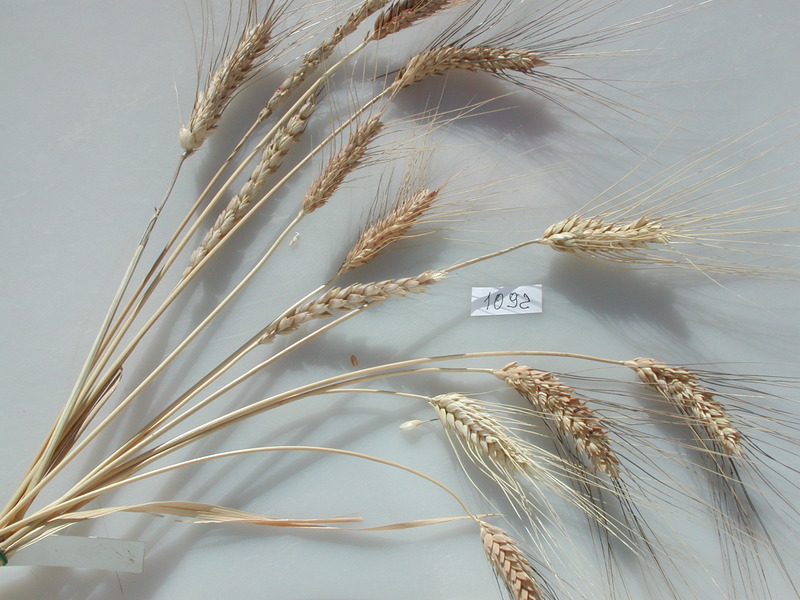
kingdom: Plantae
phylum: Tracheophyta
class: Liliopsida
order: Poales
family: Poaceae
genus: Triticum
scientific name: Triticum turgidum
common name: Wheat
